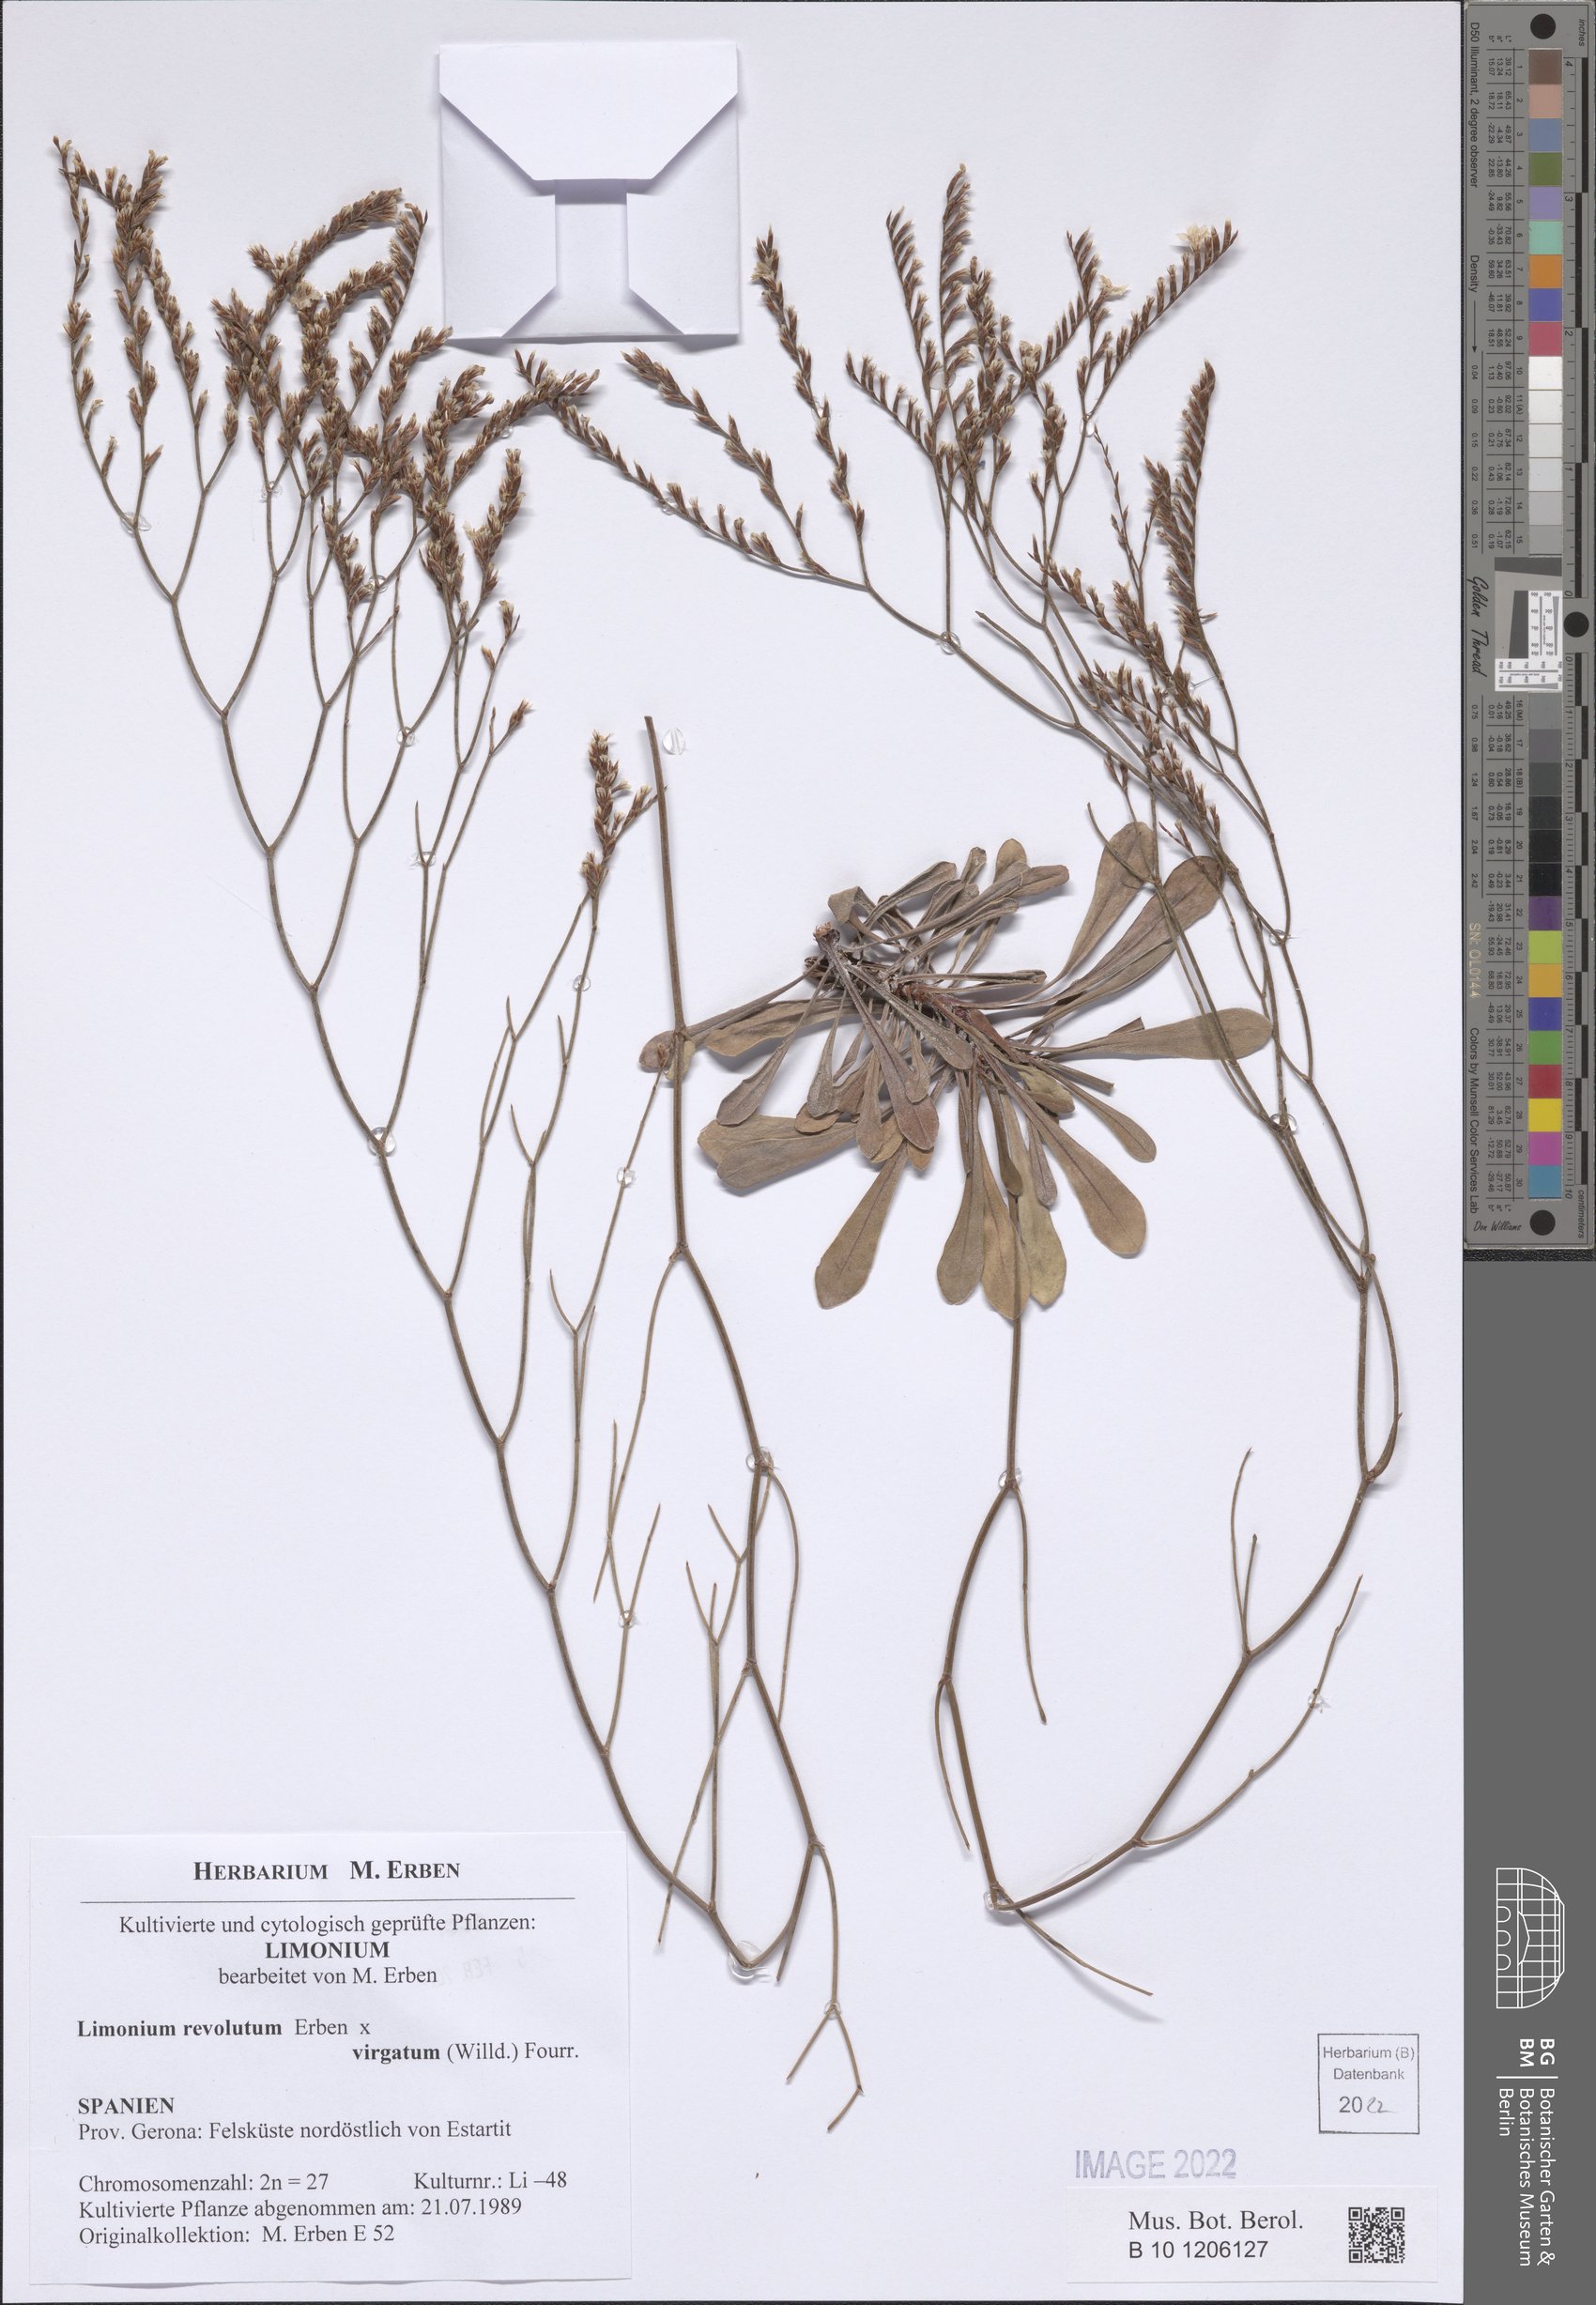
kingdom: Plantae
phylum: Tracheophyta
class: Magnoliopsida
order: Caryophyllales
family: Plumbaginaceae
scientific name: Plumbaginaceae
